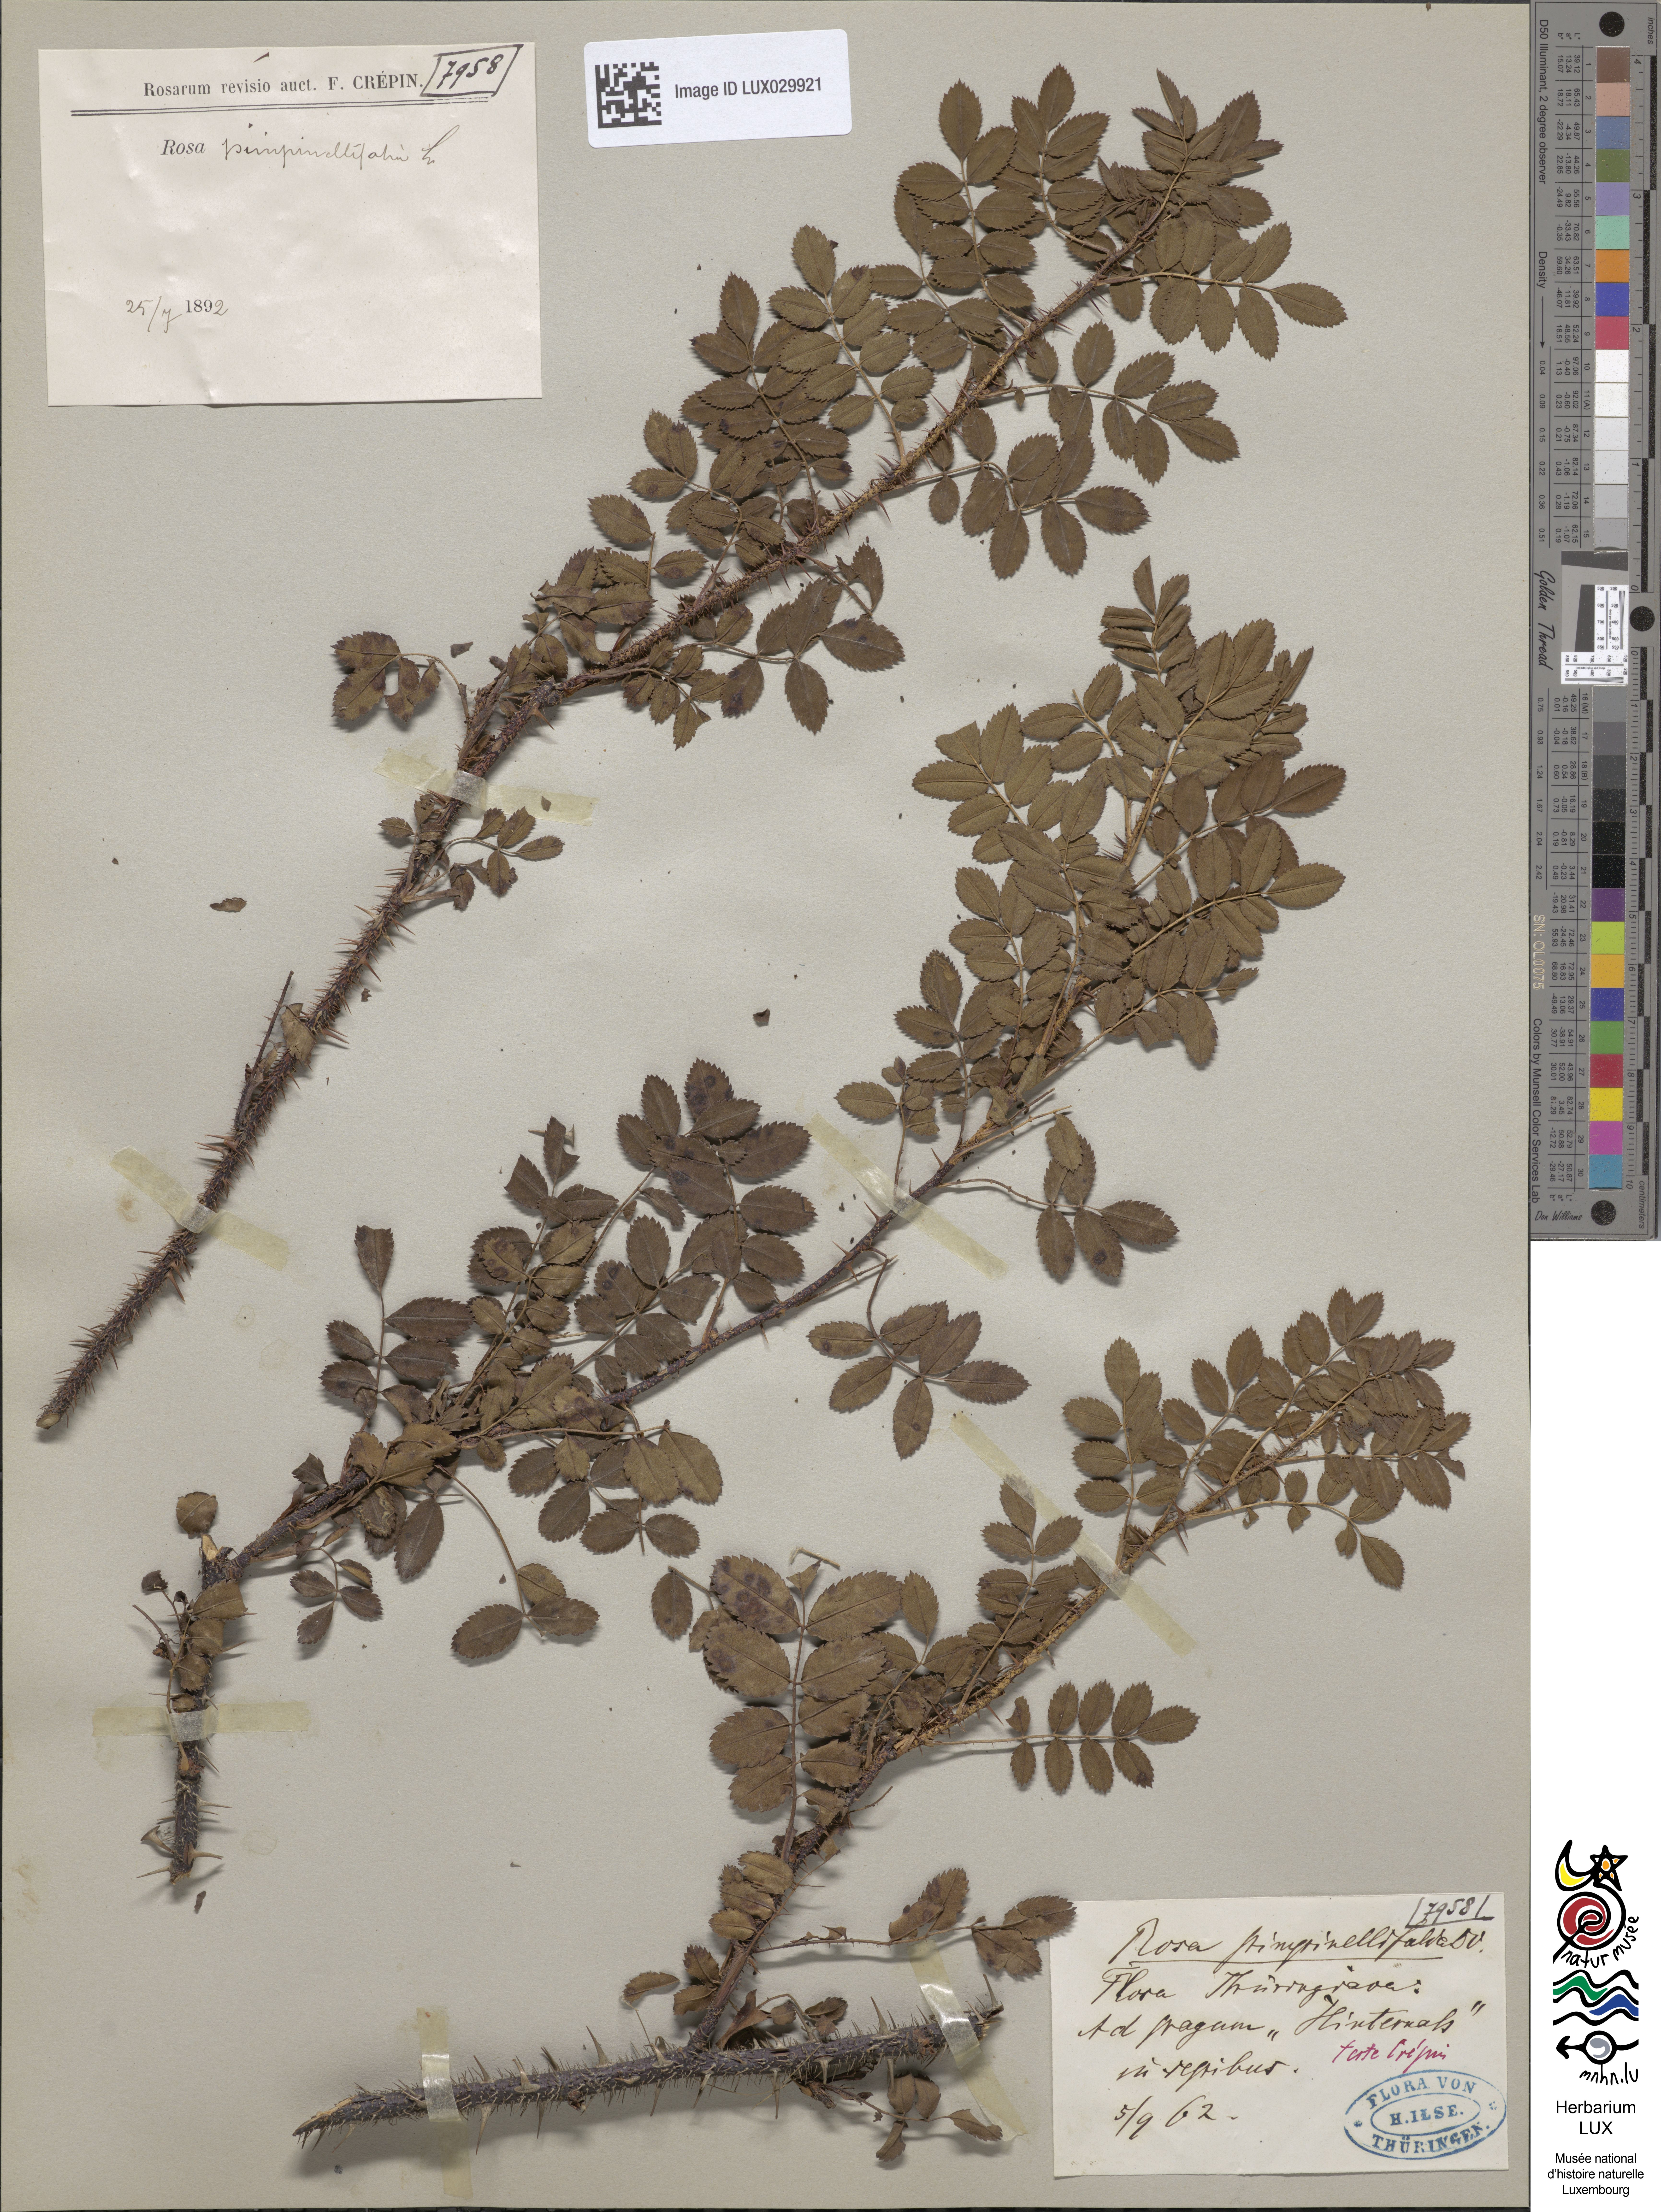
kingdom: Plantae
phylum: Tracheophyta
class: Magnoliopsida
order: Rosales
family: Rosaceae
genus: Rosa
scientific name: Rosa
